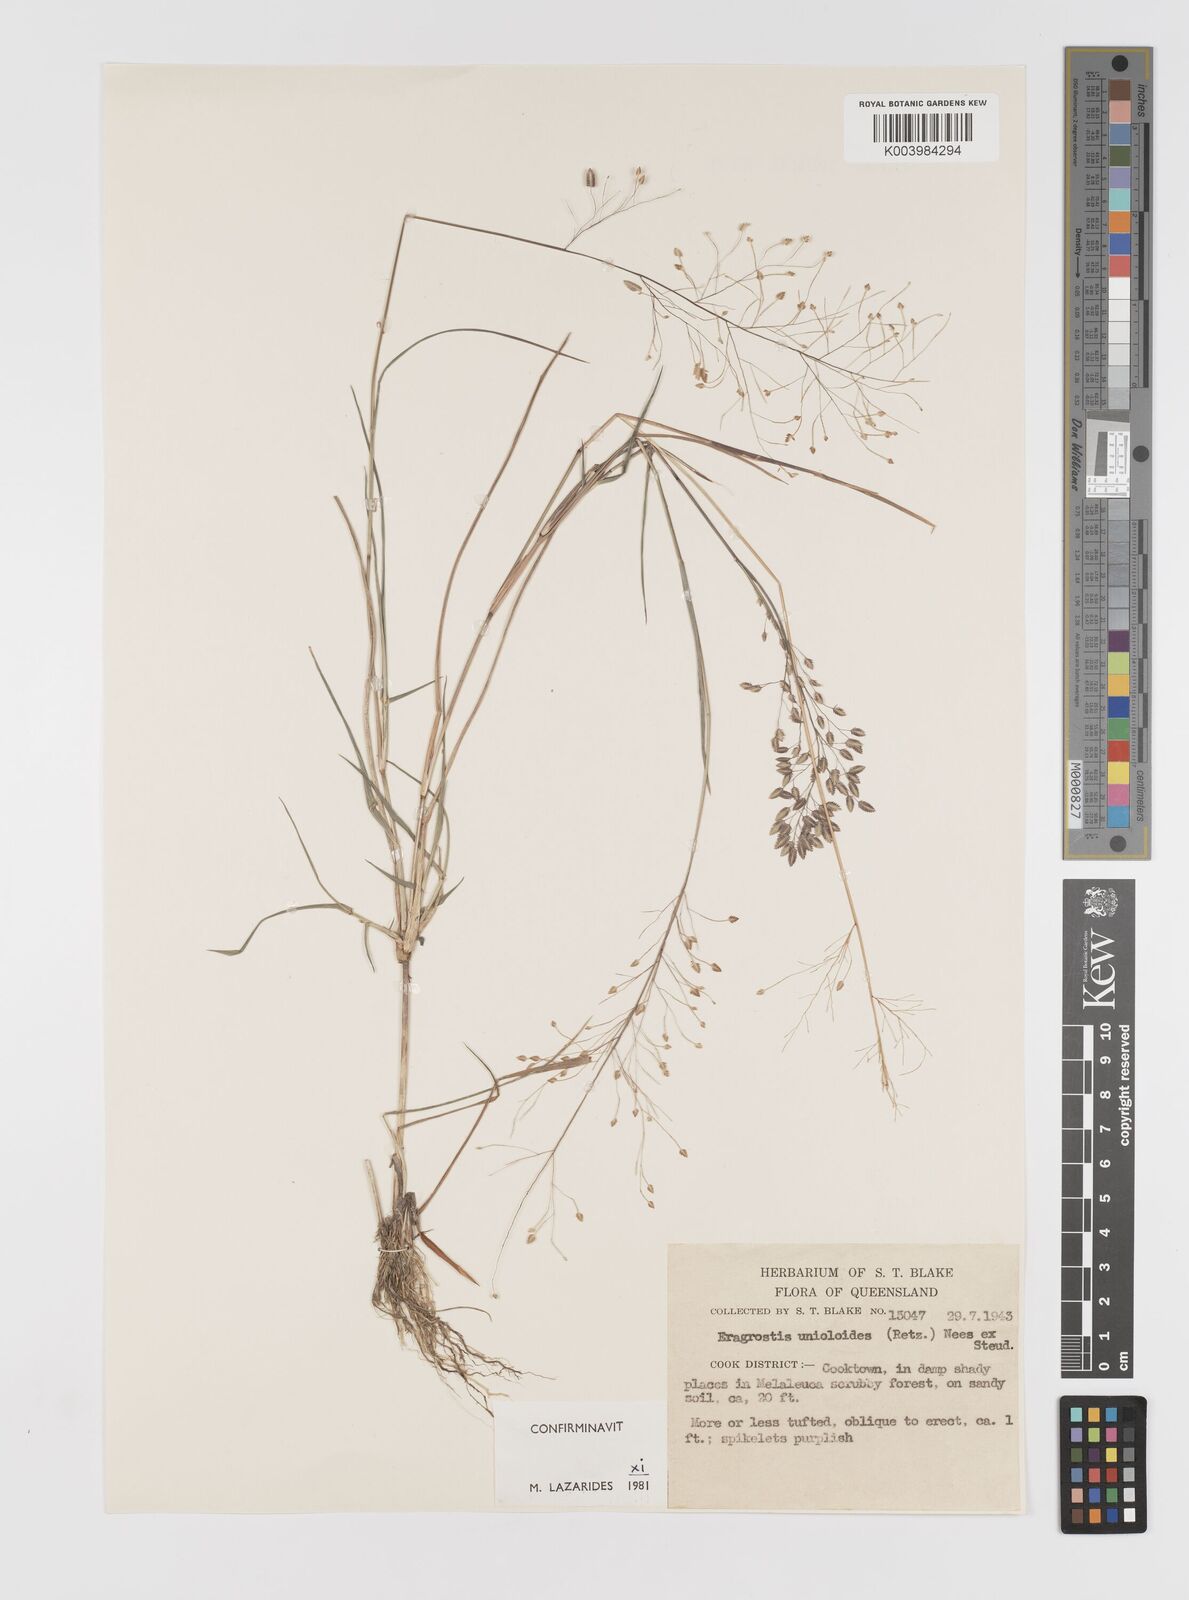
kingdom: Plantae
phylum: Tracheophyta
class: Liliopsida
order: Poales
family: Poaceae
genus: Eragrostis
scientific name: Eragrostis unioloides
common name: Chinese lovegrass
